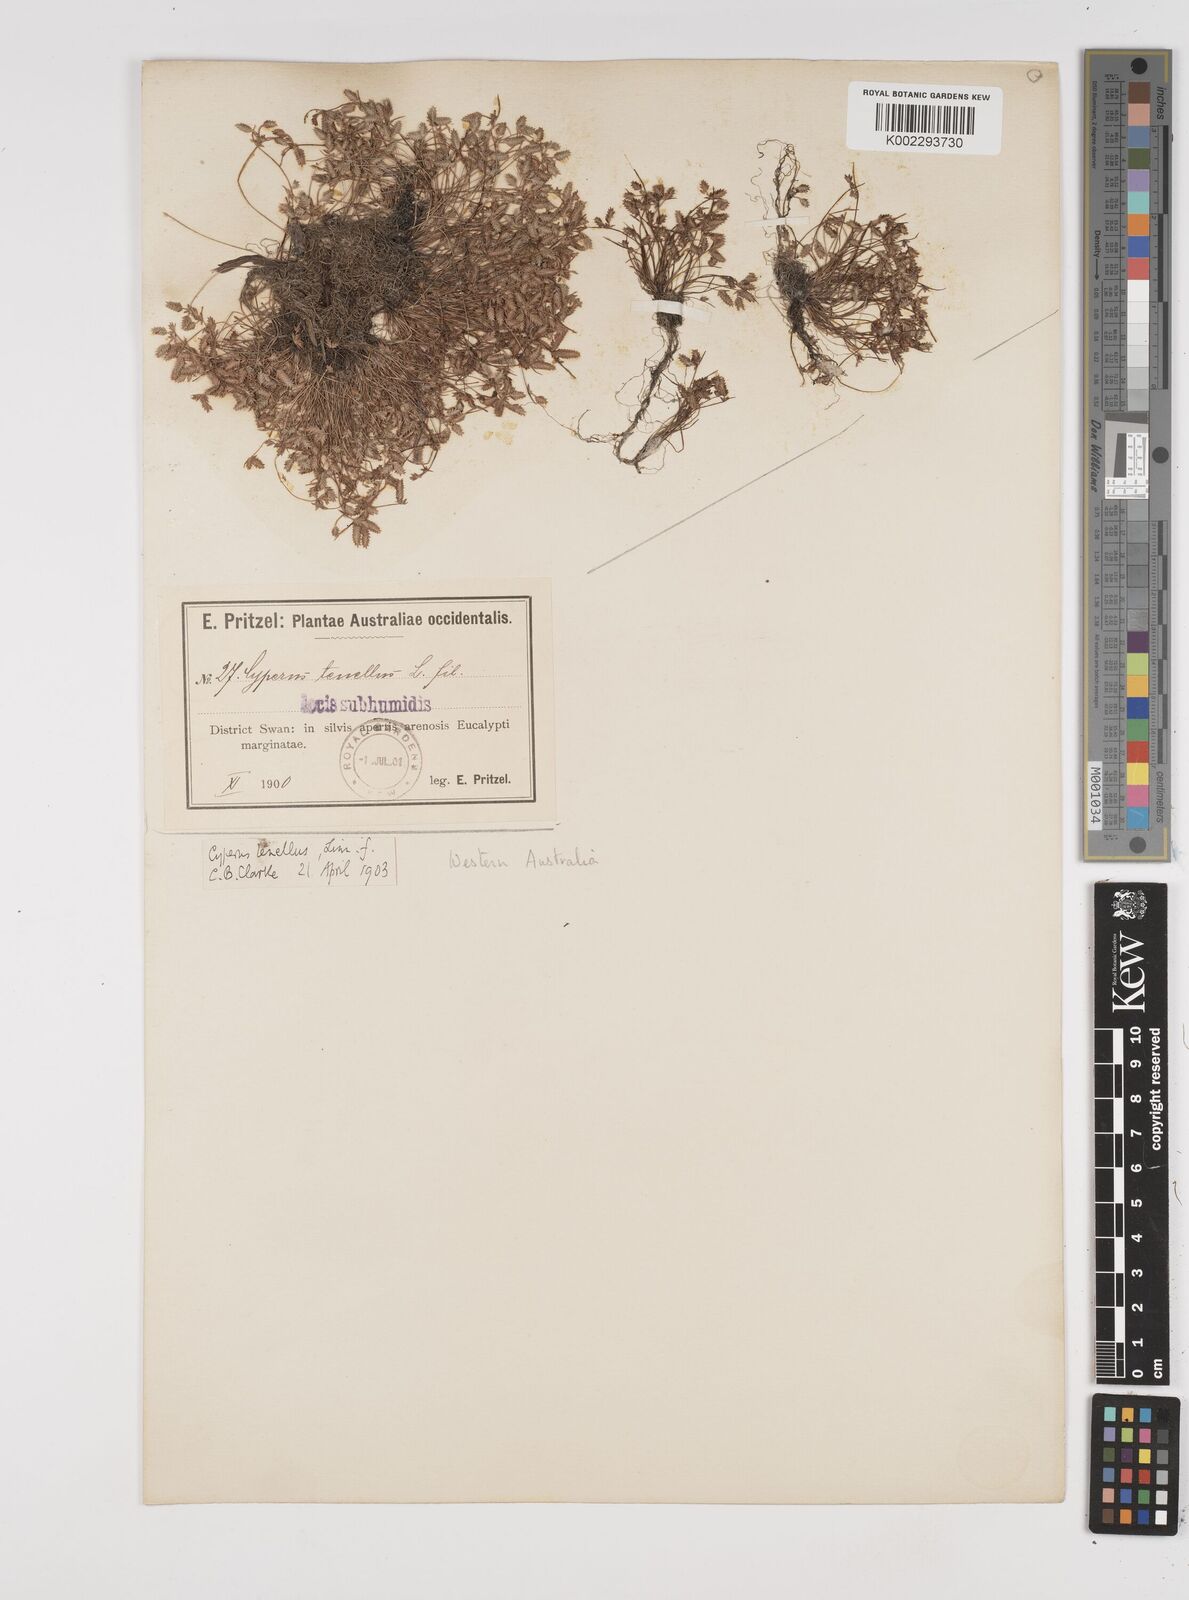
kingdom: Plantae
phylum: Tracheophyta
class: Liliopsida
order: Poales
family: Cyperaceae
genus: Isolepis
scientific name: Isolepis levynsiana
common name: Sedge
